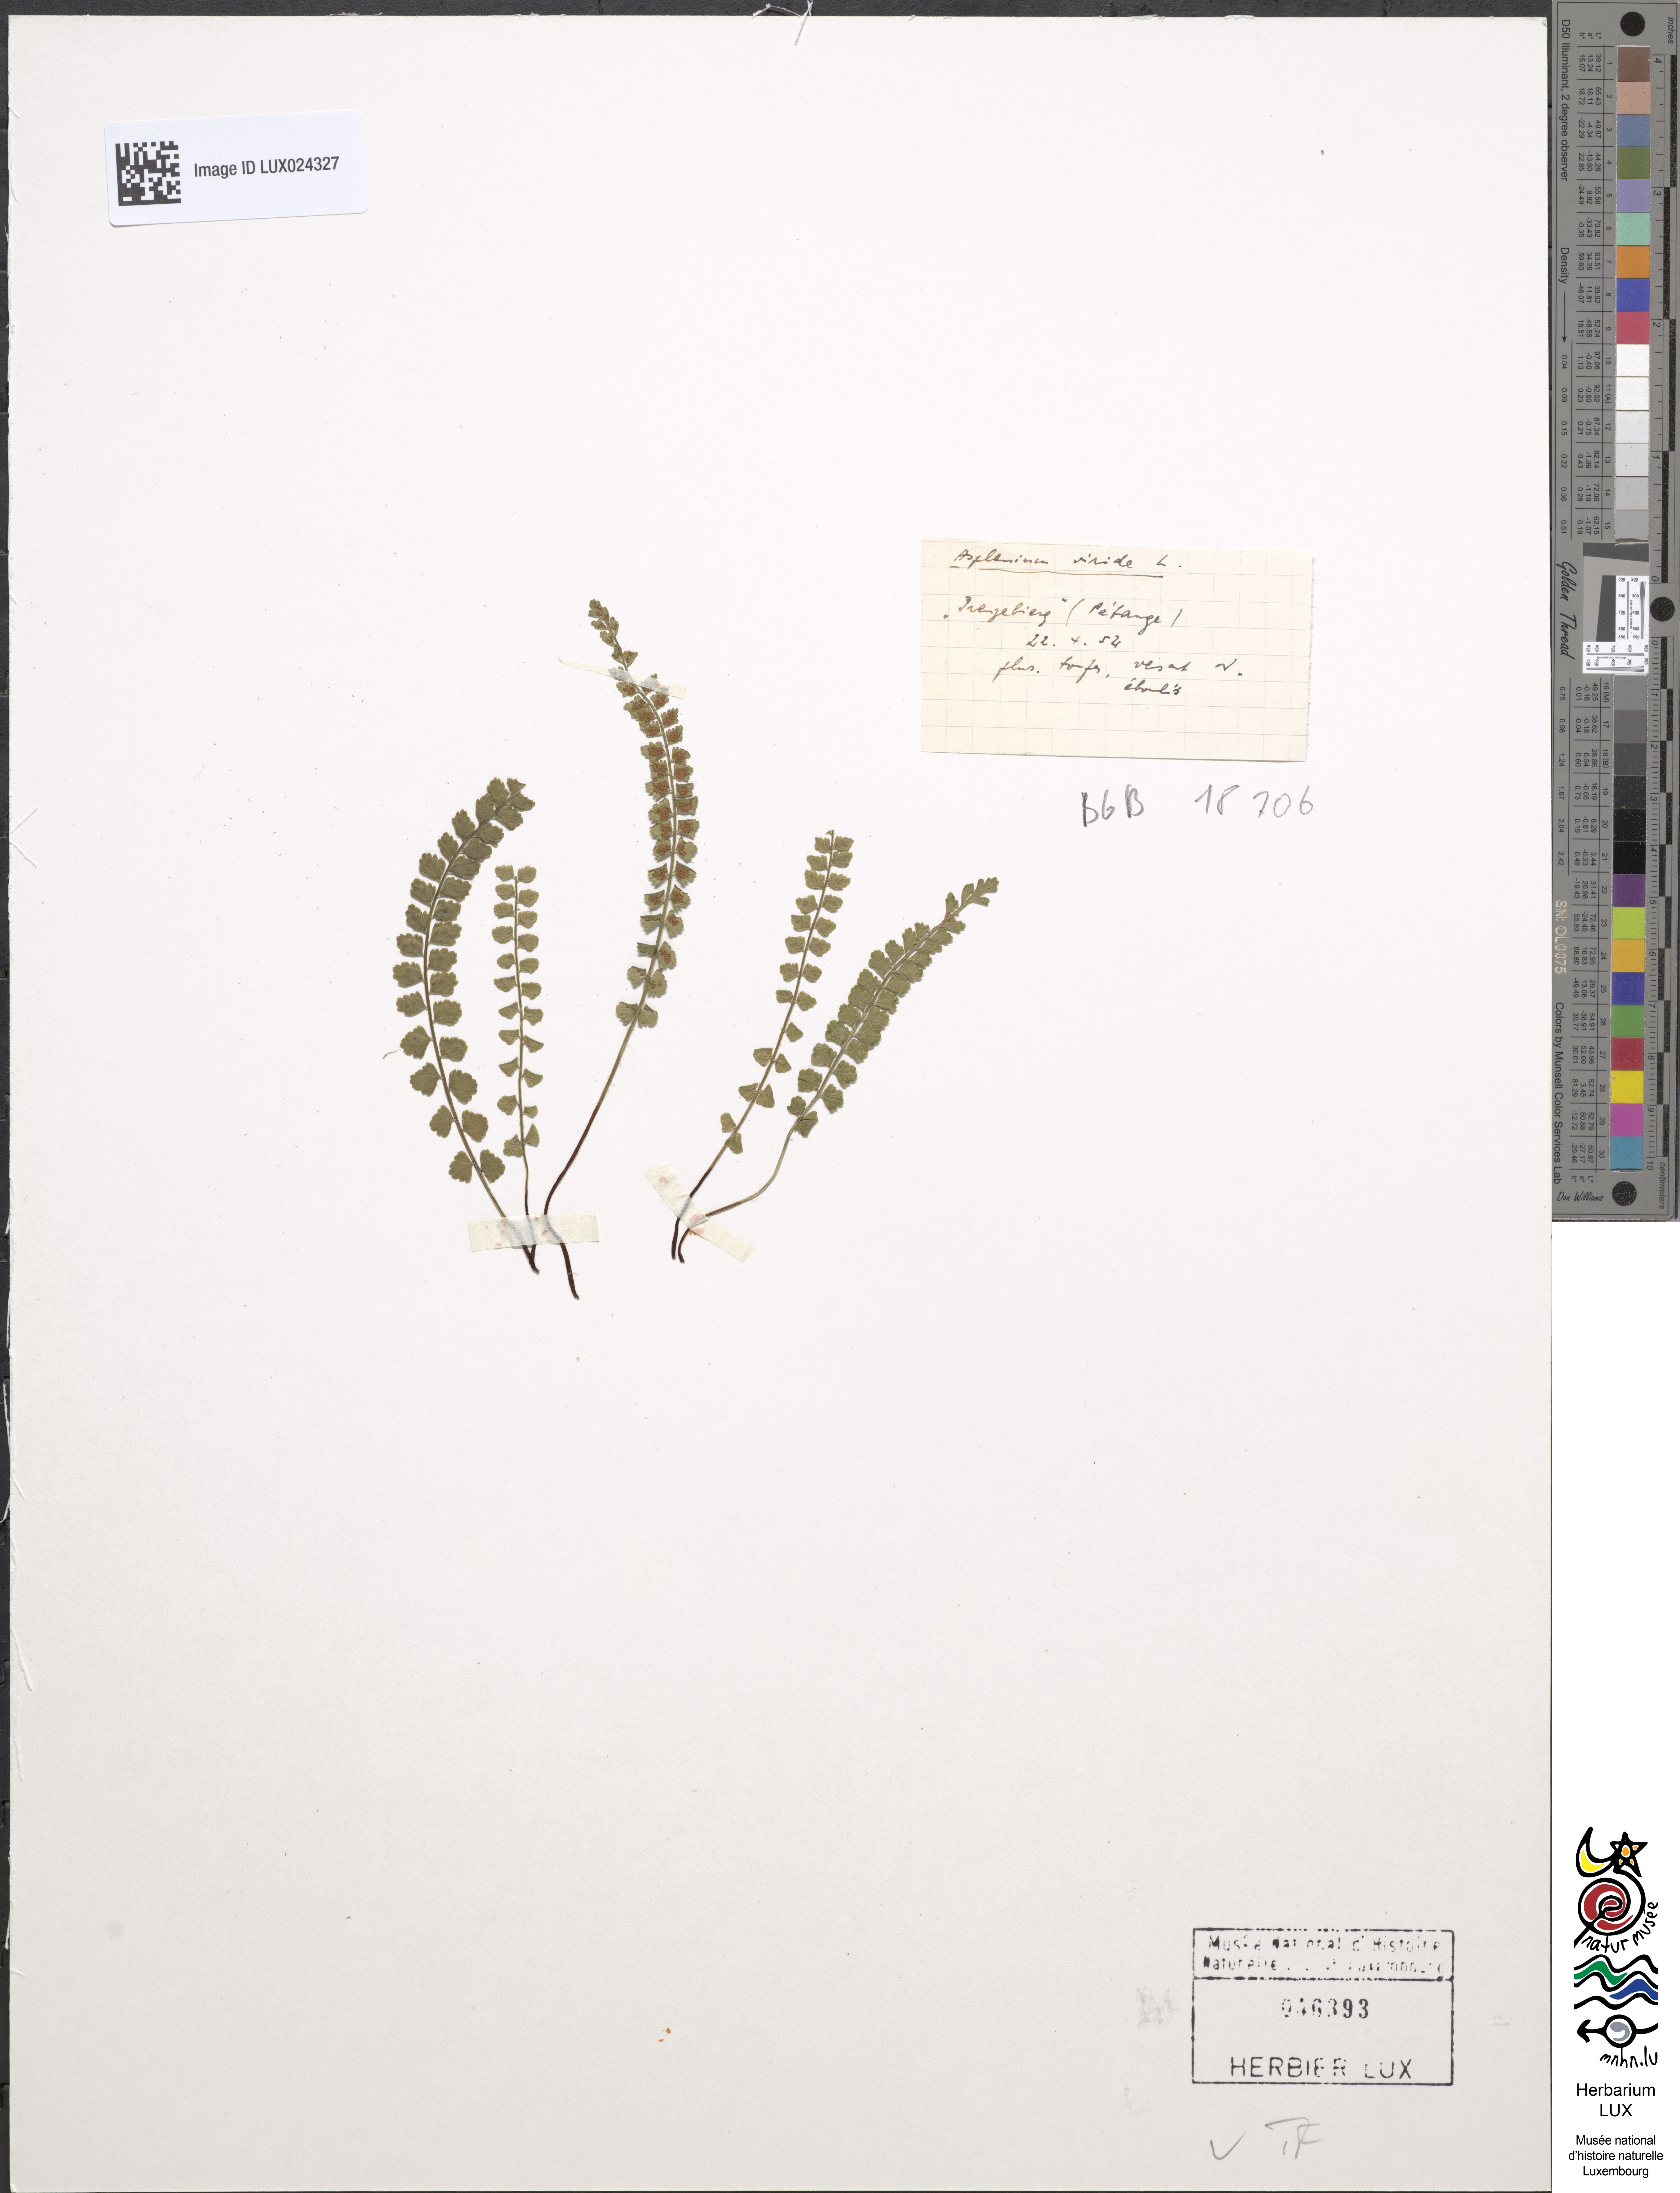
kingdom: Plantae
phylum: Tracheophyta
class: Polypodiopsida
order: Polypodiales
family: Aspleniaceae
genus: Asplenium
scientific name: Asplenium viride
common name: Green spleenwort
